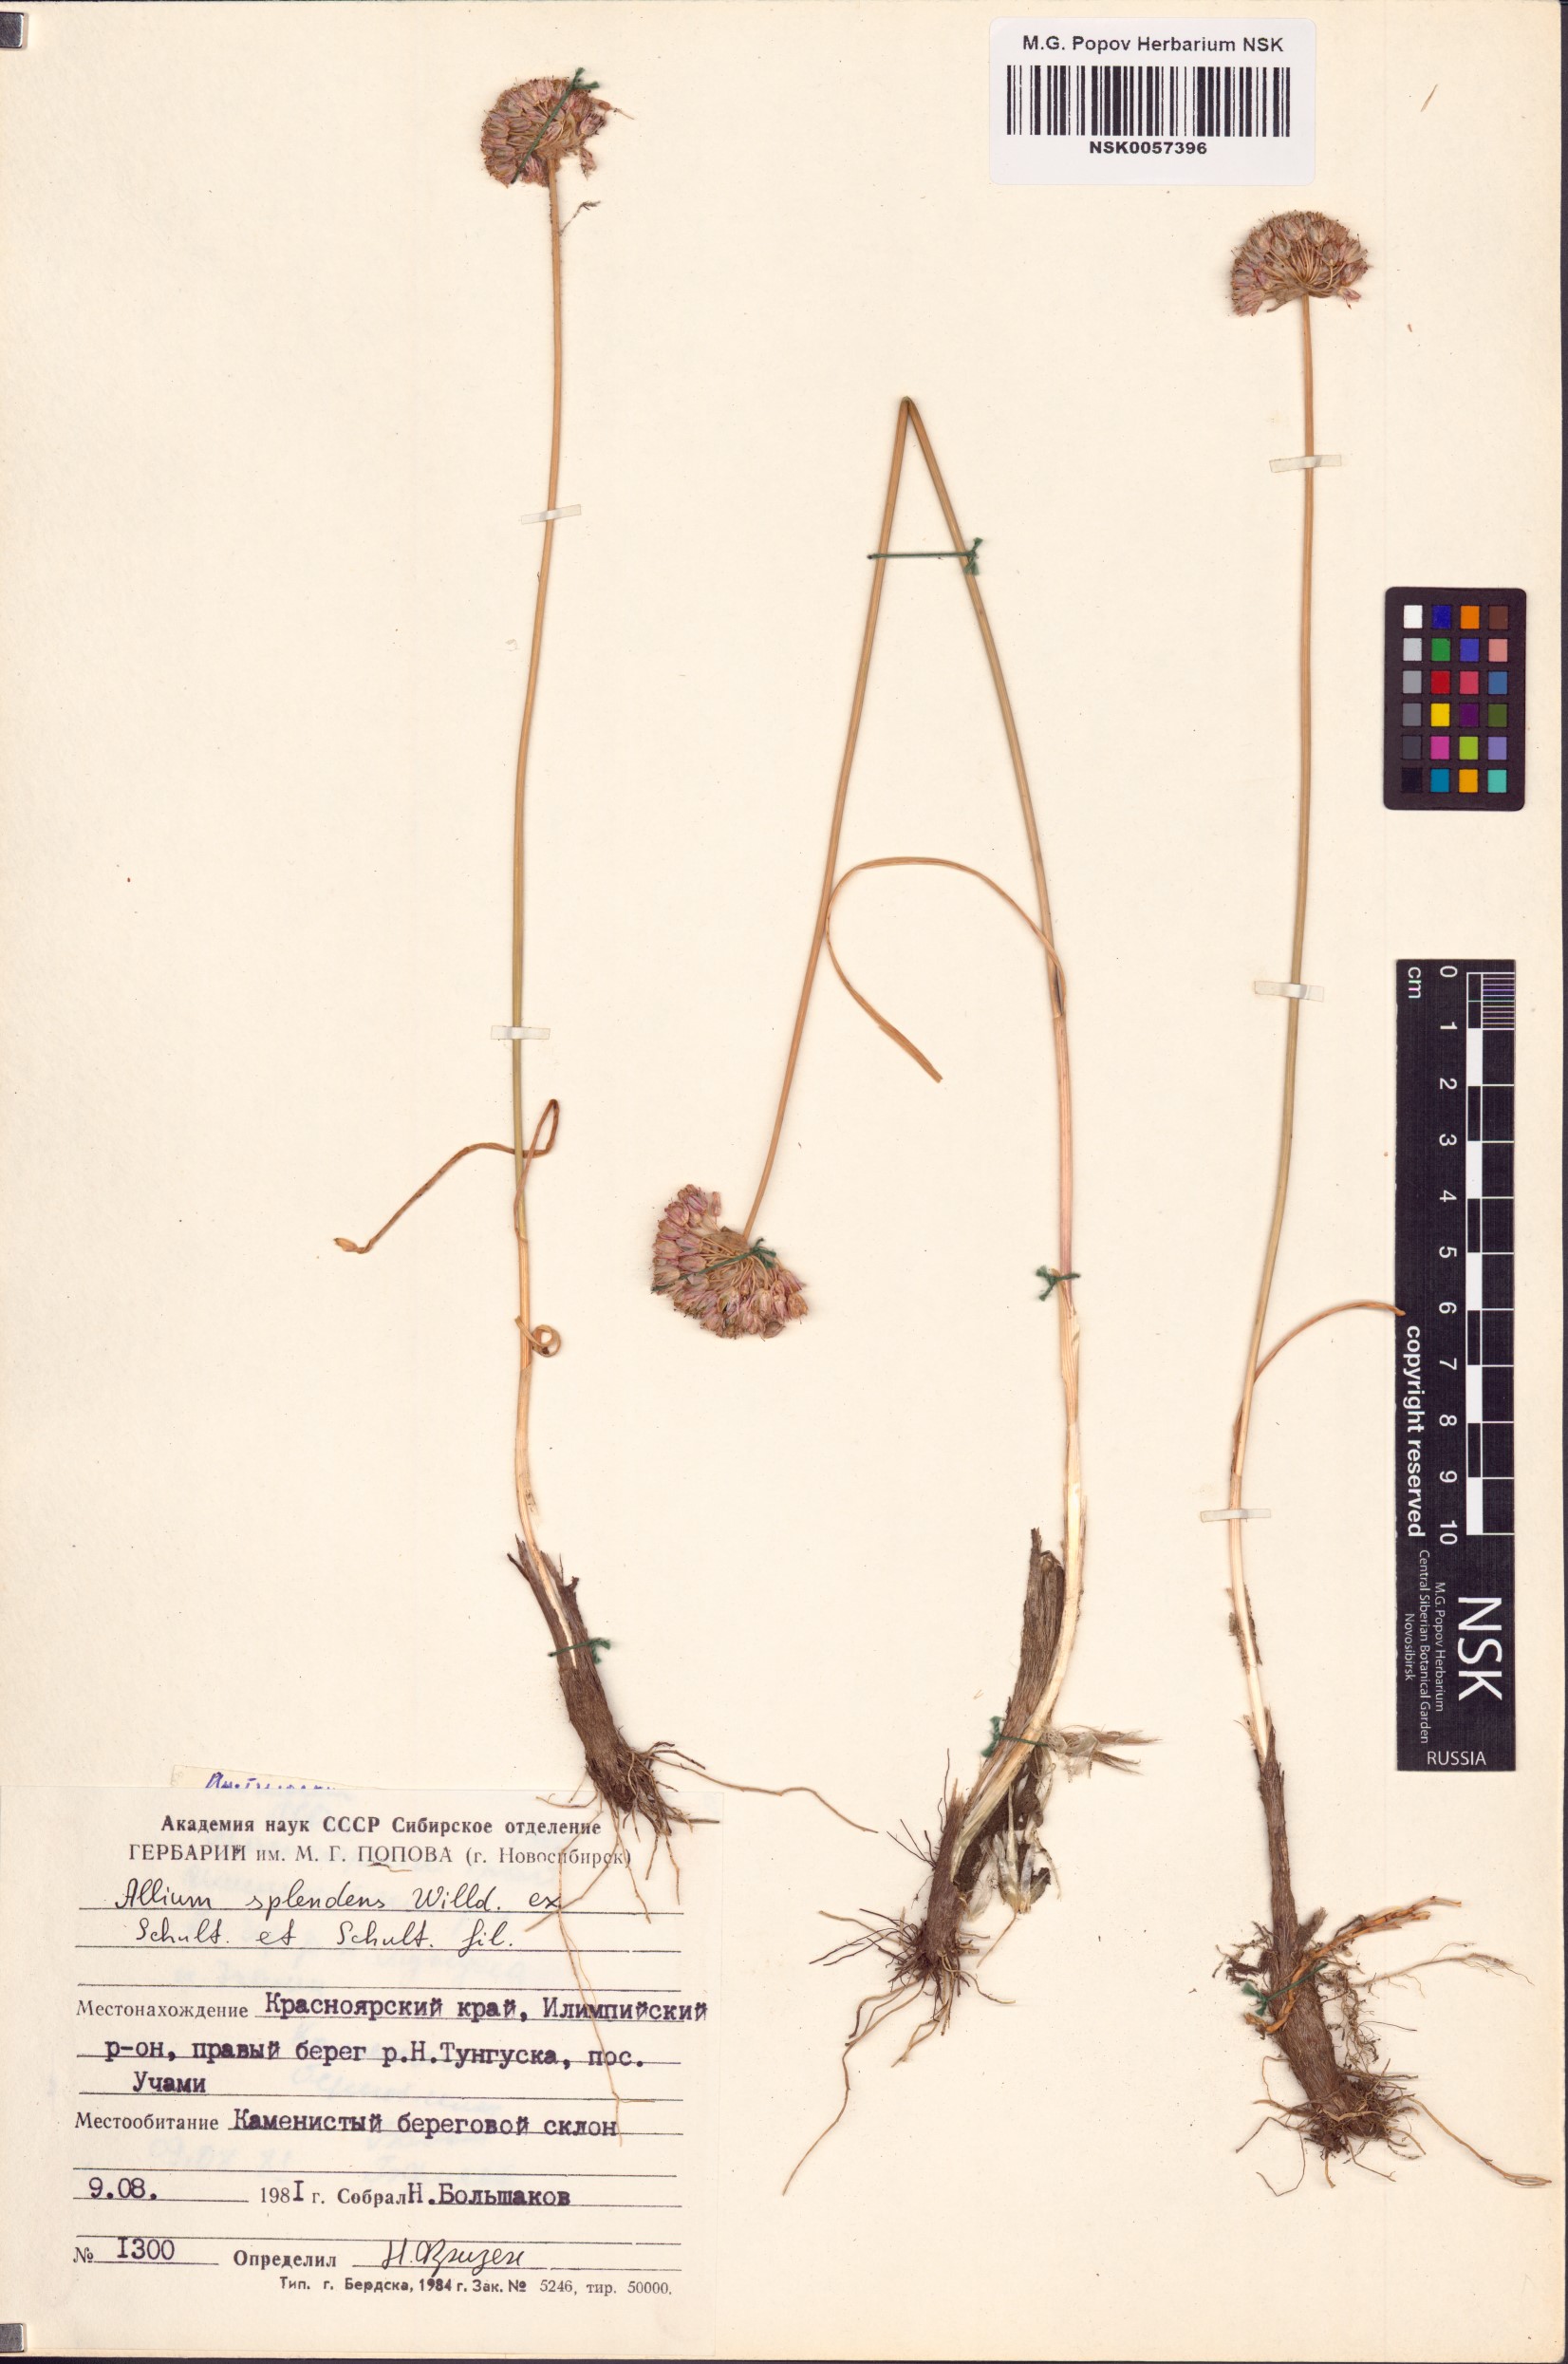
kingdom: Plantae
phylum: Tracheophyta
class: Liliopsida
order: Asparagales
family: Amaryllidaceae
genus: Allium
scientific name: Allium splendens
